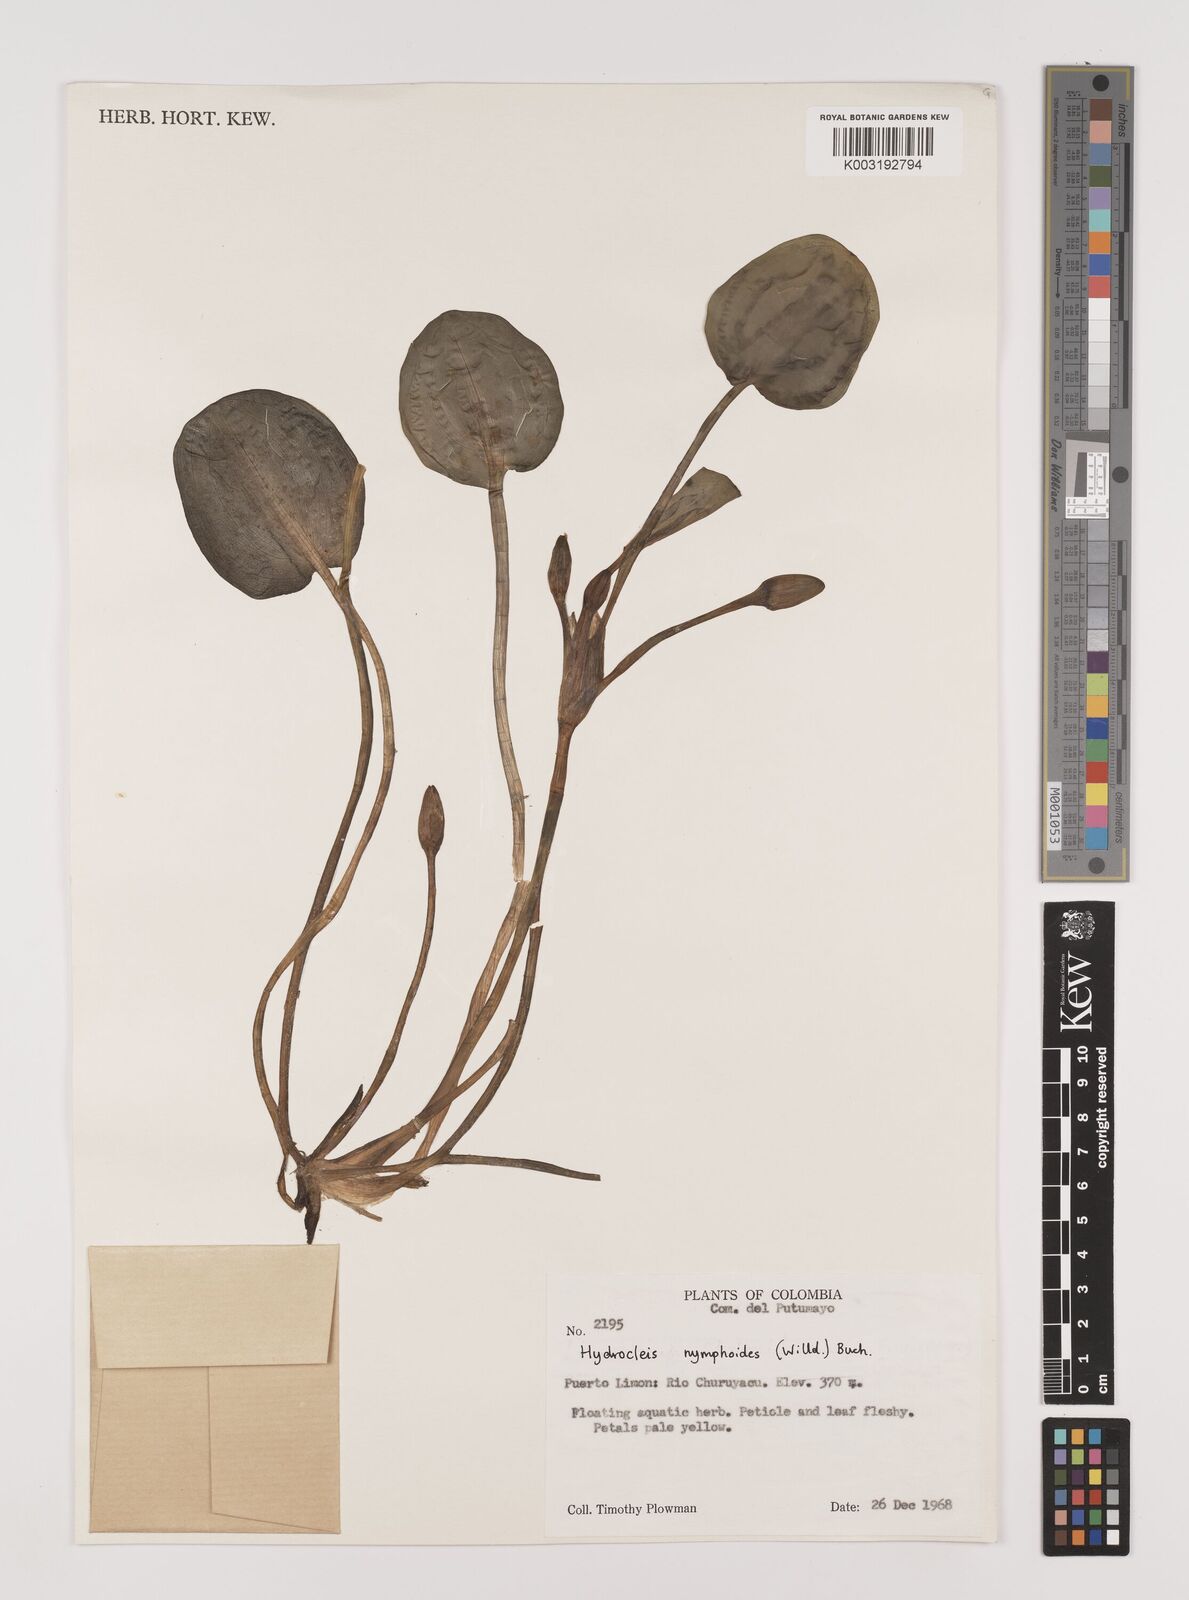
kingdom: Plantae
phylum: Tracheophyta
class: Liliopsida
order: Alismatales
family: Alismataceae
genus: Hydrocleys
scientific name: Hydrocleys nymphoides
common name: Water-poppy
